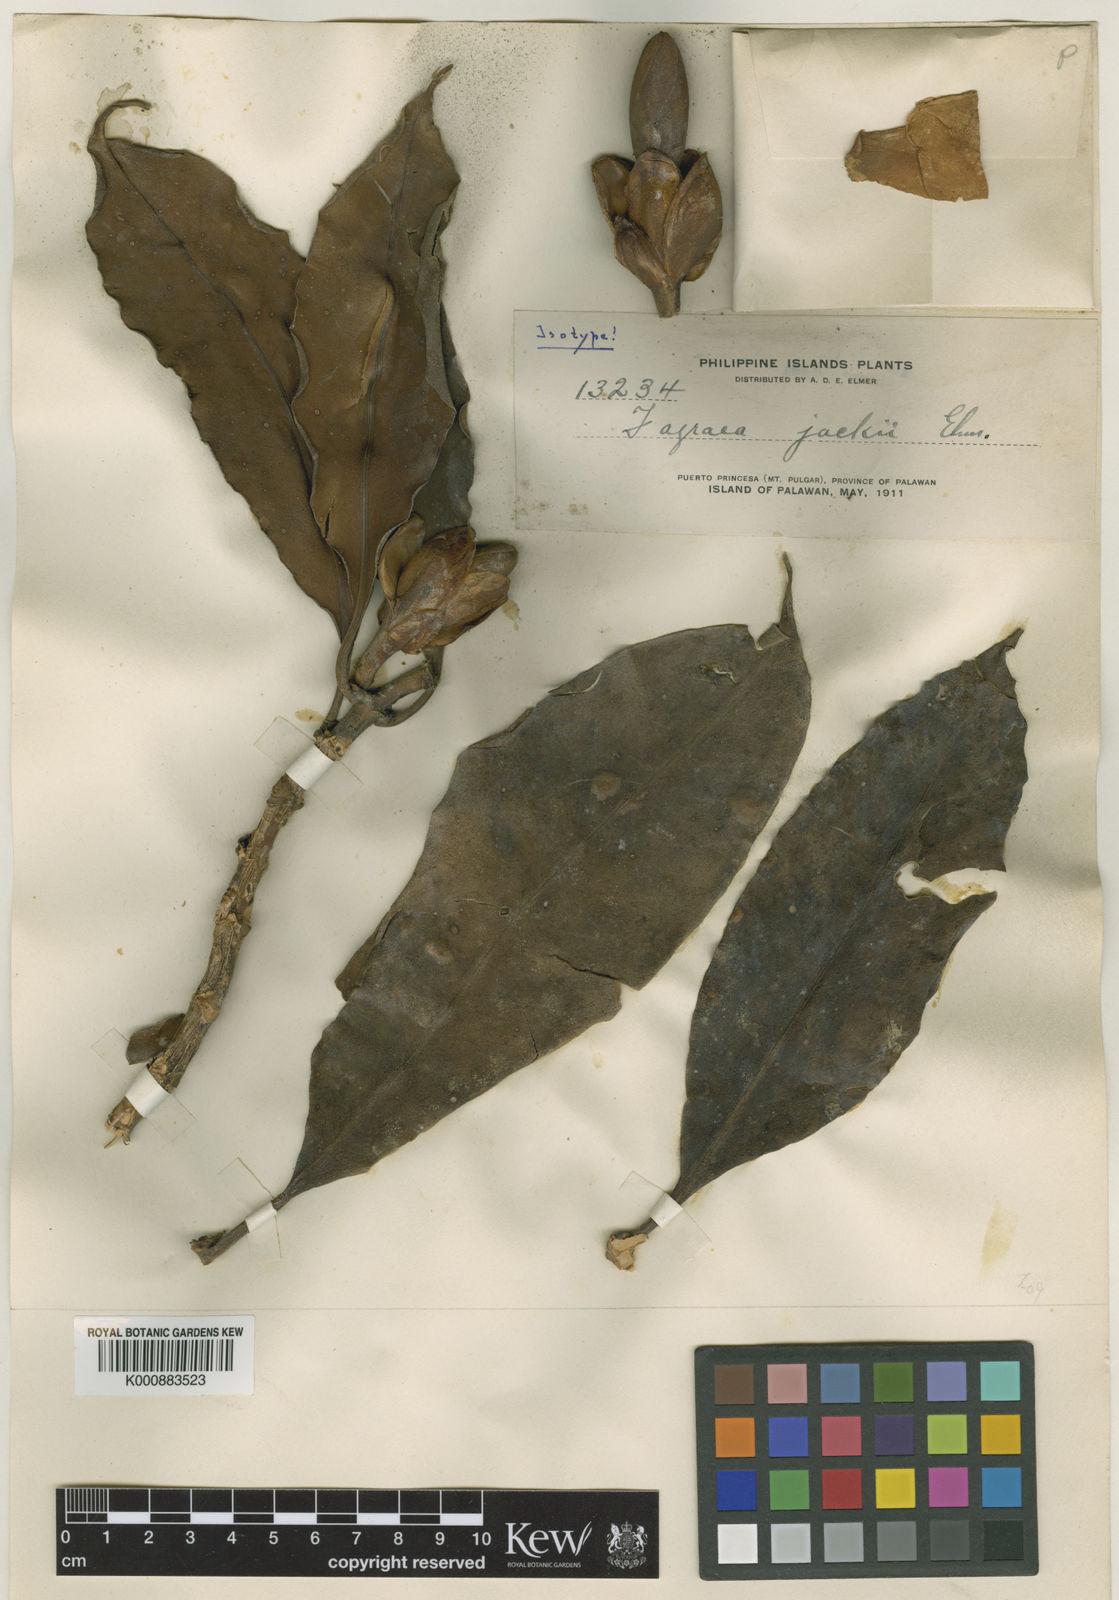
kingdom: Plantae
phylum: Tracheophyta
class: Magnoliopsida
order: Gentianales
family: Gentianaceae
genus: Fagraea
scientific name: Fagraea borneensis
